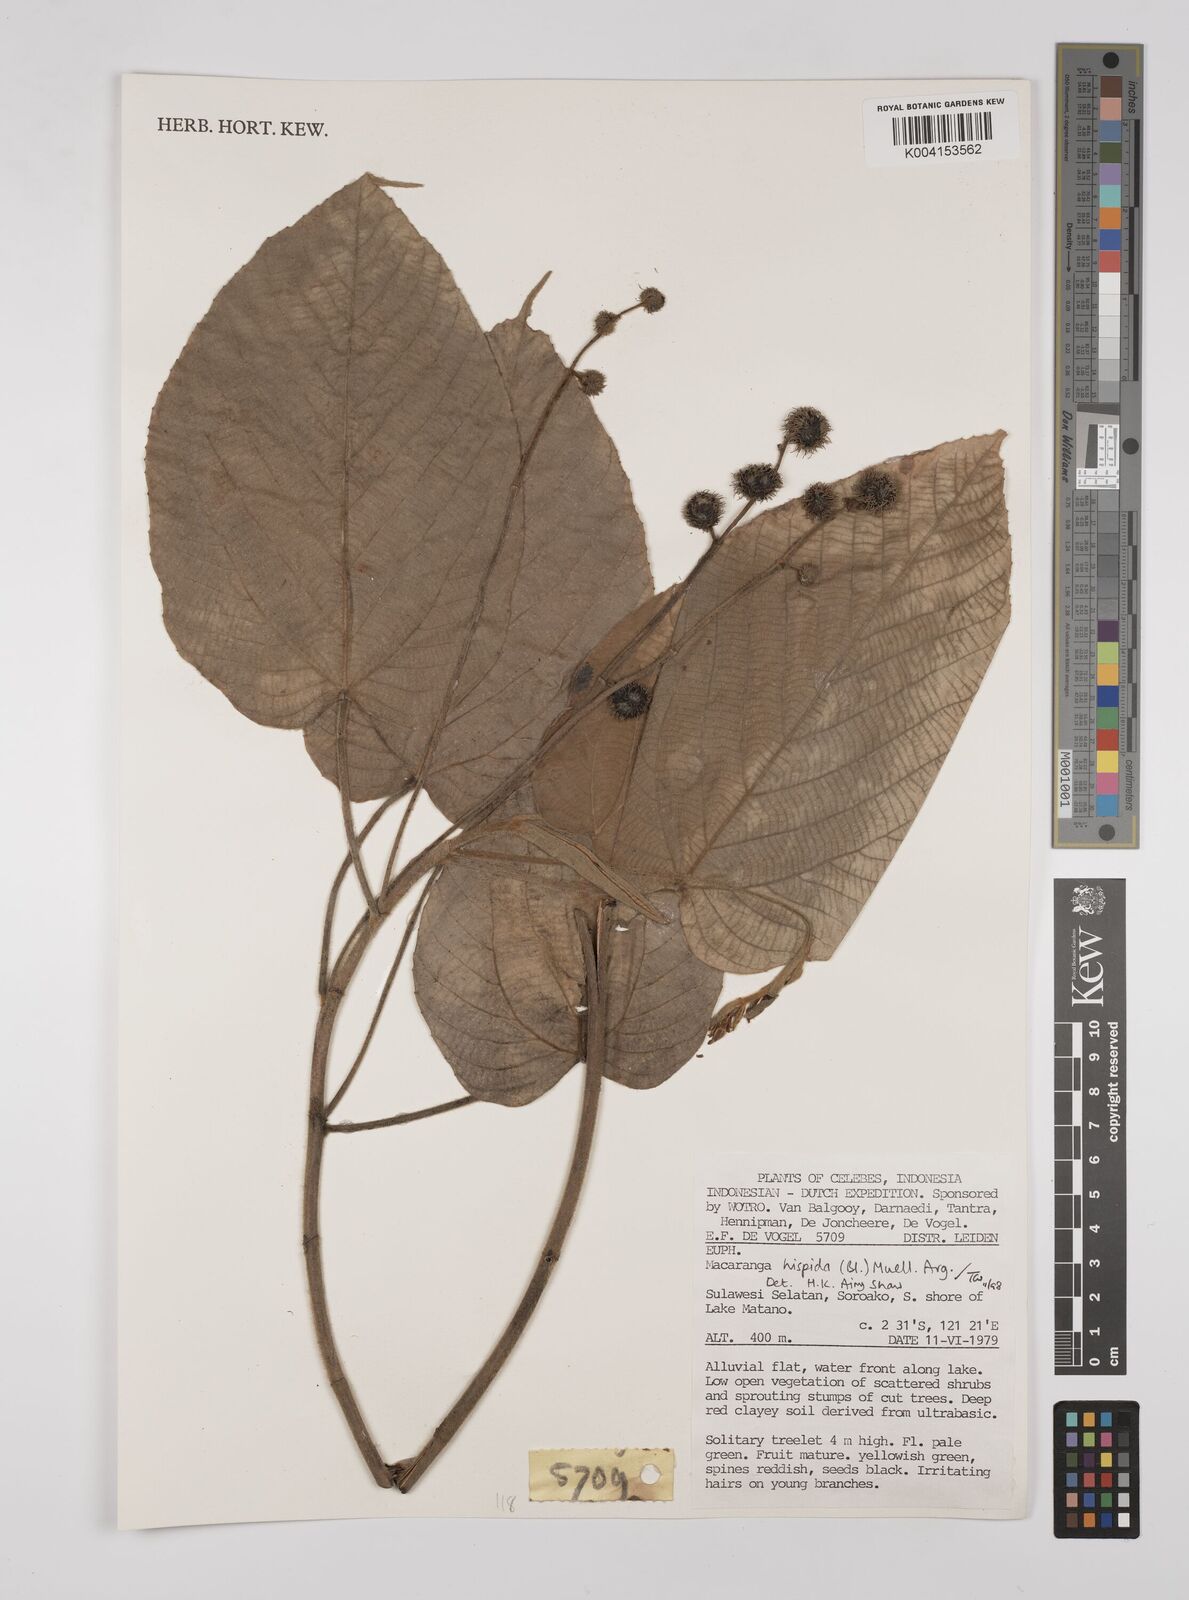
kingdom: Plantae
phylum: Tracheophyta
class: Magnoliopsida
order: Malpighiales
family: Euphorbiaceae
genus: Macaranga
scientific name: Macaranga hispida
